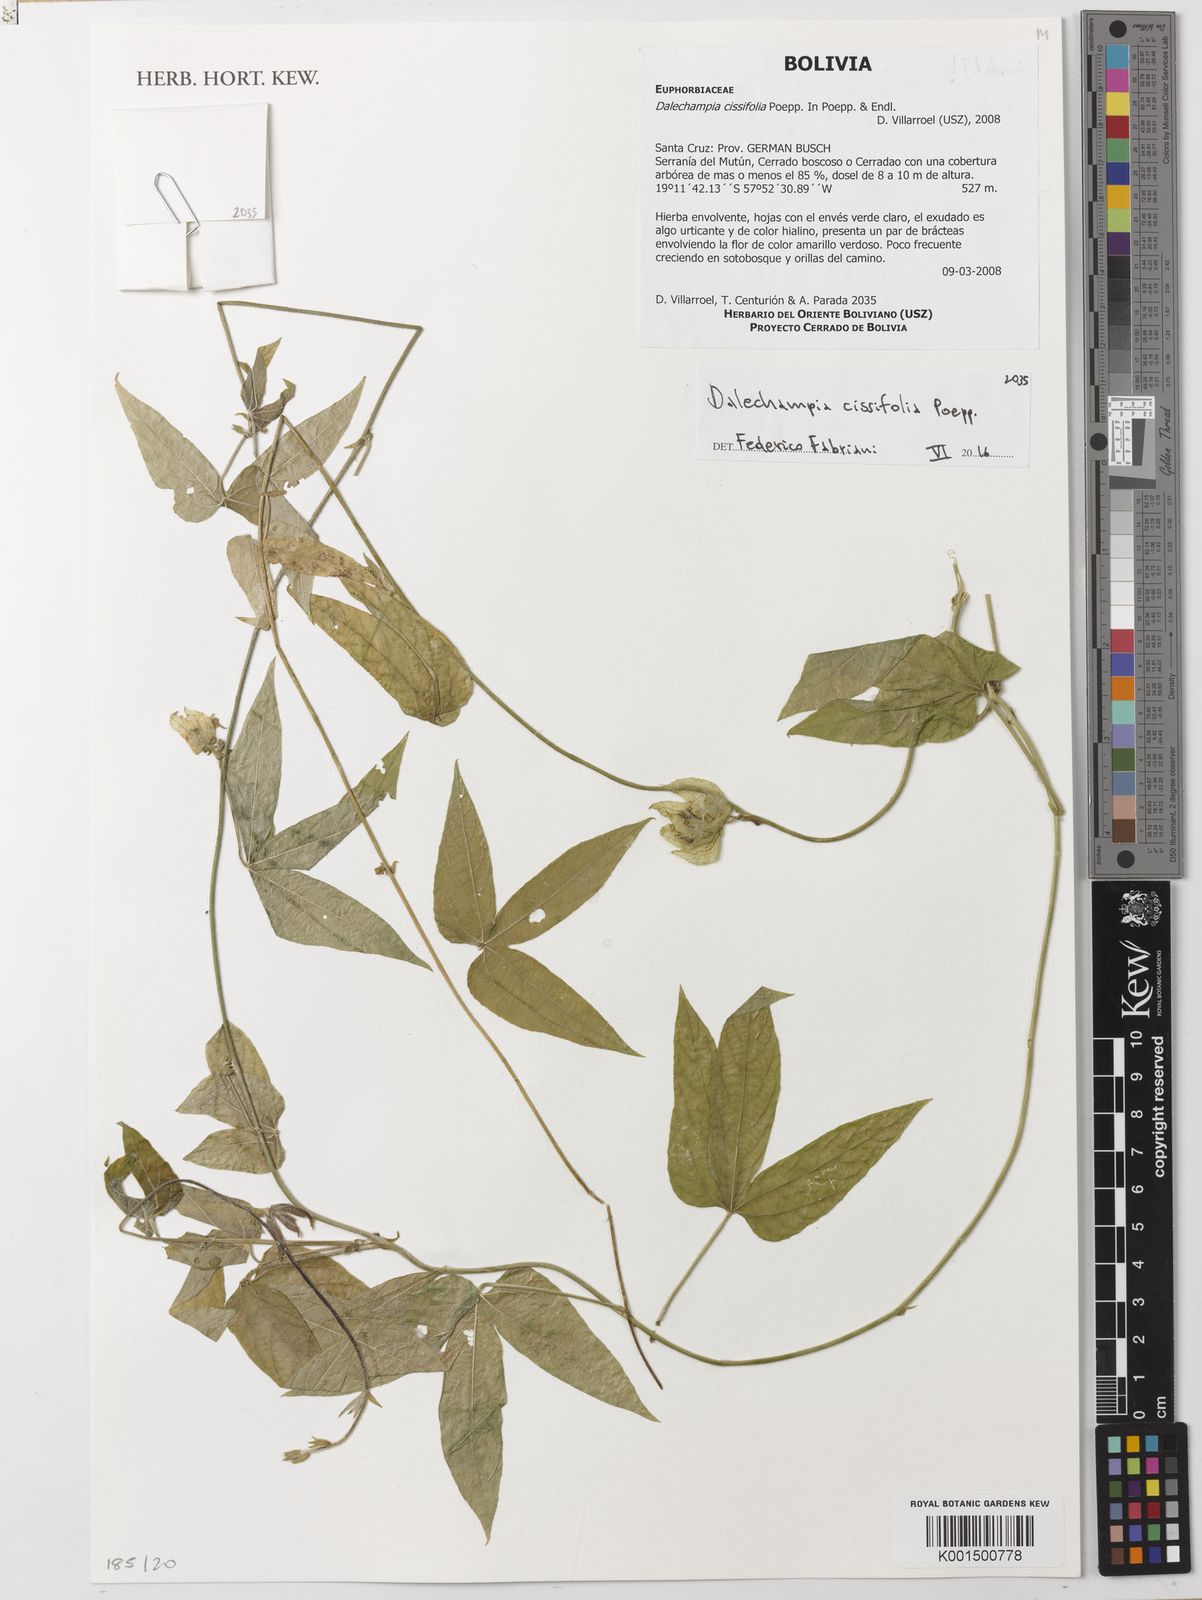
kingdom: Plantae
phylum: Tracheophyta
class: Magnoliopsida
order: Malpighiales
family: Euphorbiaceae
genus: Dalechampia
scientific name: Dalechampia cissifolia
